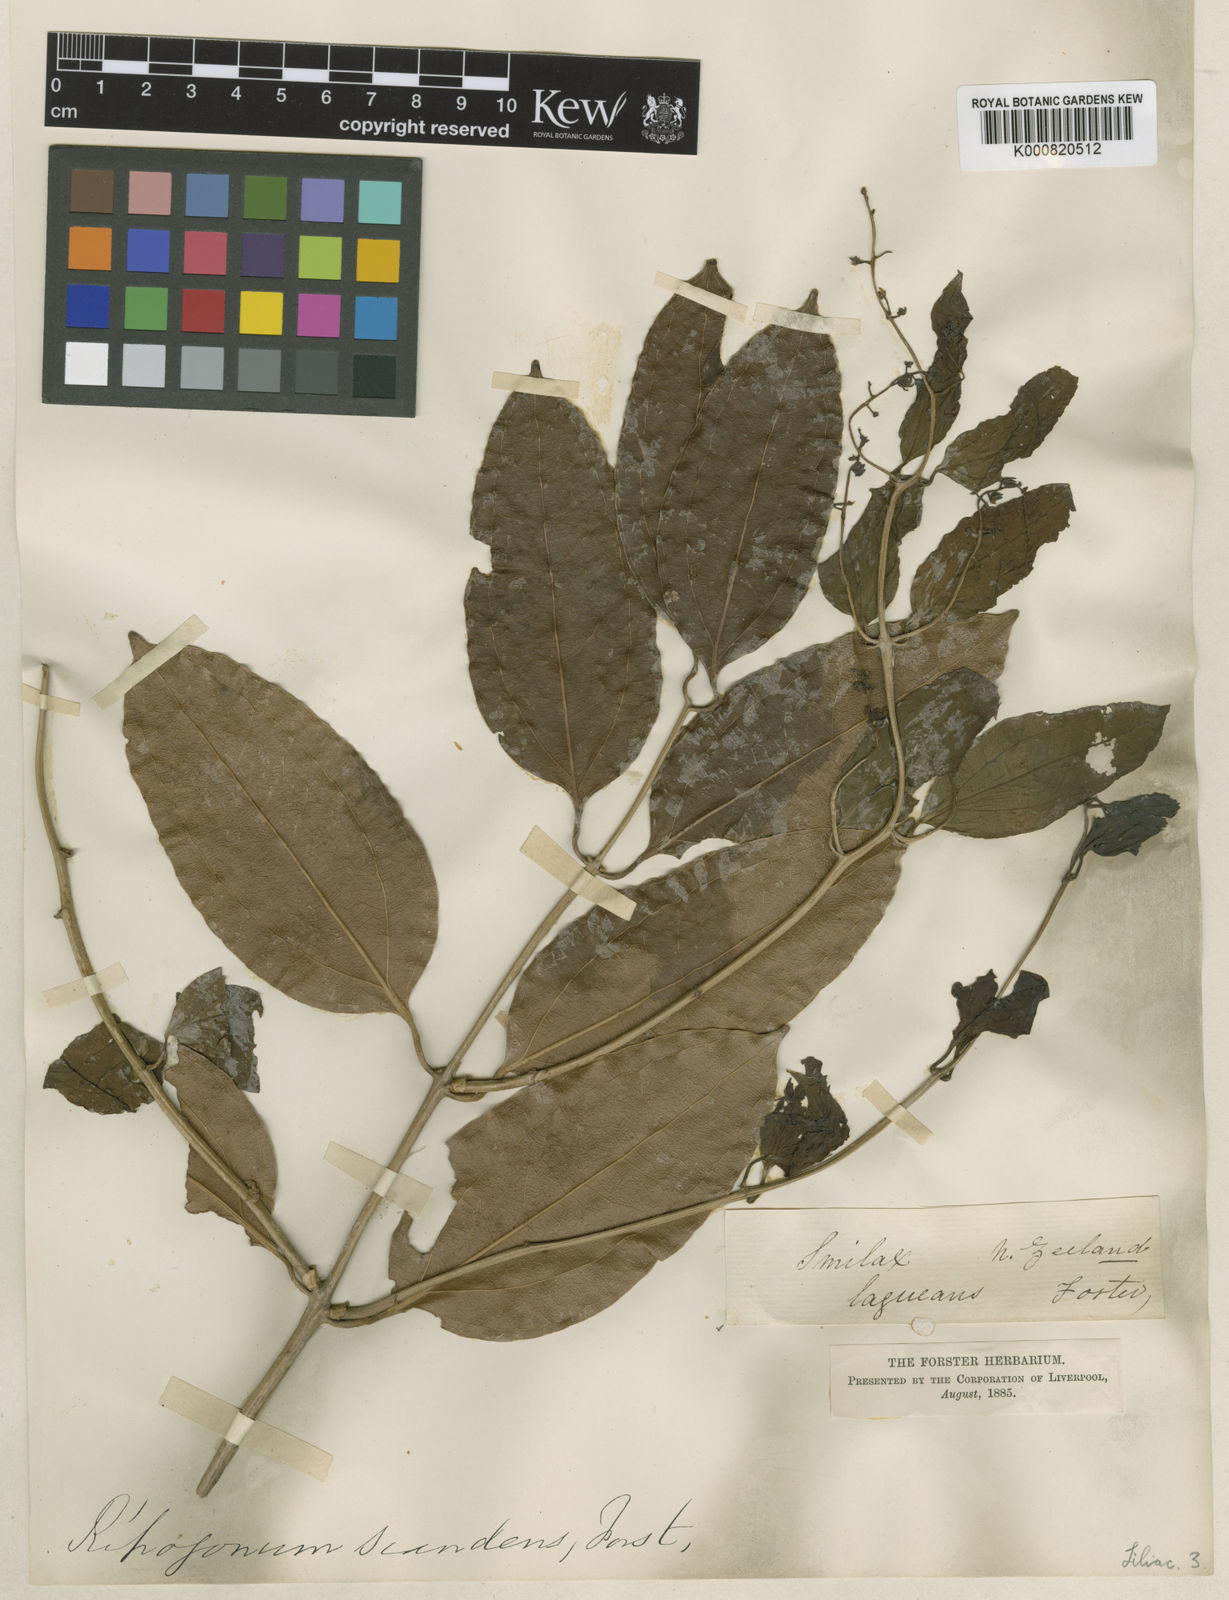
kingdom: Plantae
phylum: Tracheophyta
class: Liliopsida
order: Liliales
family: Ripogonaceae
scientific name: Ripogonaceae
